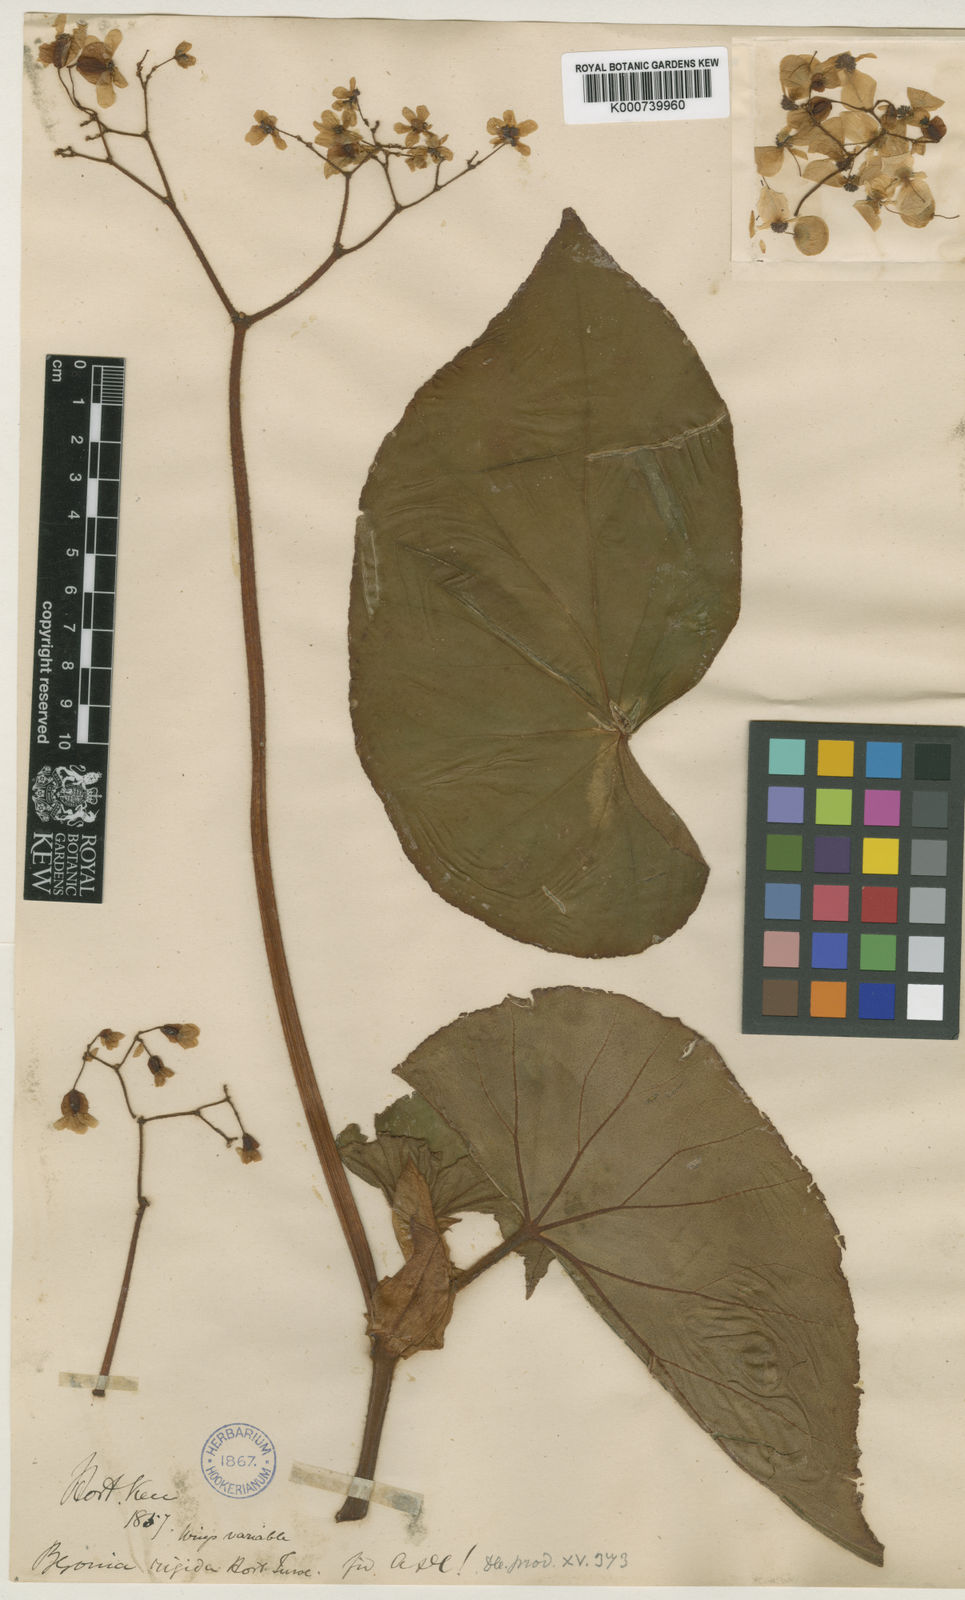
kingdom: Plantae
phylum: Tracheophyta
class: Magnoliopsida
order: Cucurbitales
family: Begoniaceae
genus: Begonia
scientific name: Begonia rigida
